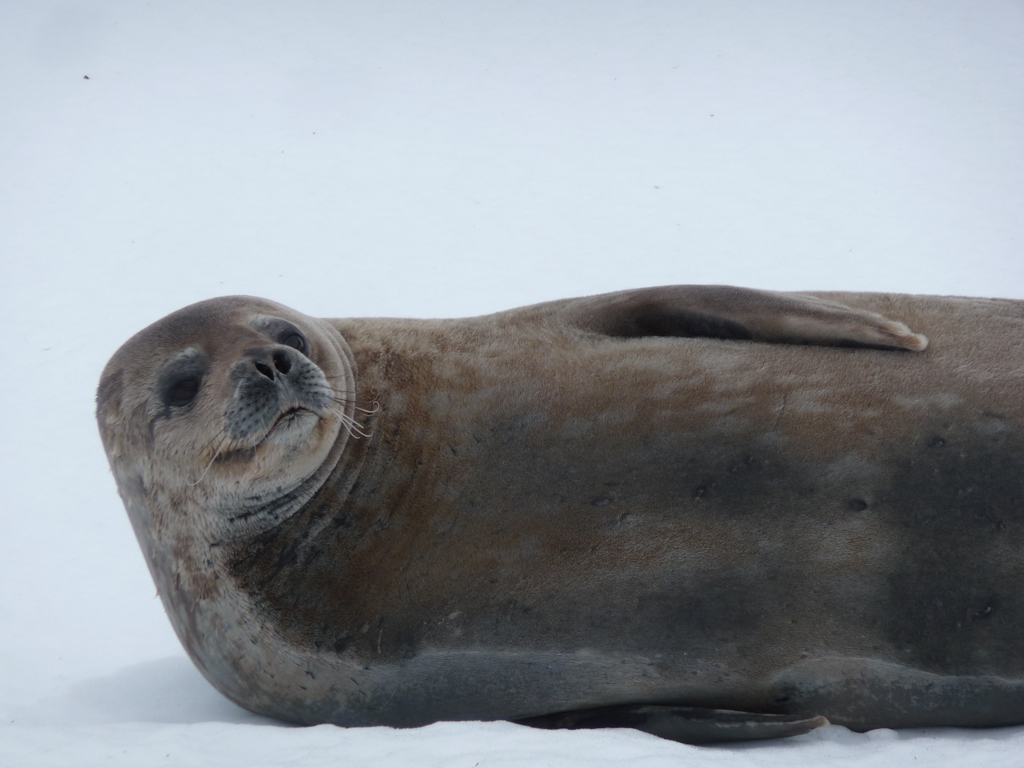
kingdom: Animalia
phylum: Chordata
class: Mammalia
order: Carnivora
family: Phocidae
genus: Leptonychotes
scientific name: Leptonychotes weddellii
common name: Weddell Seal
